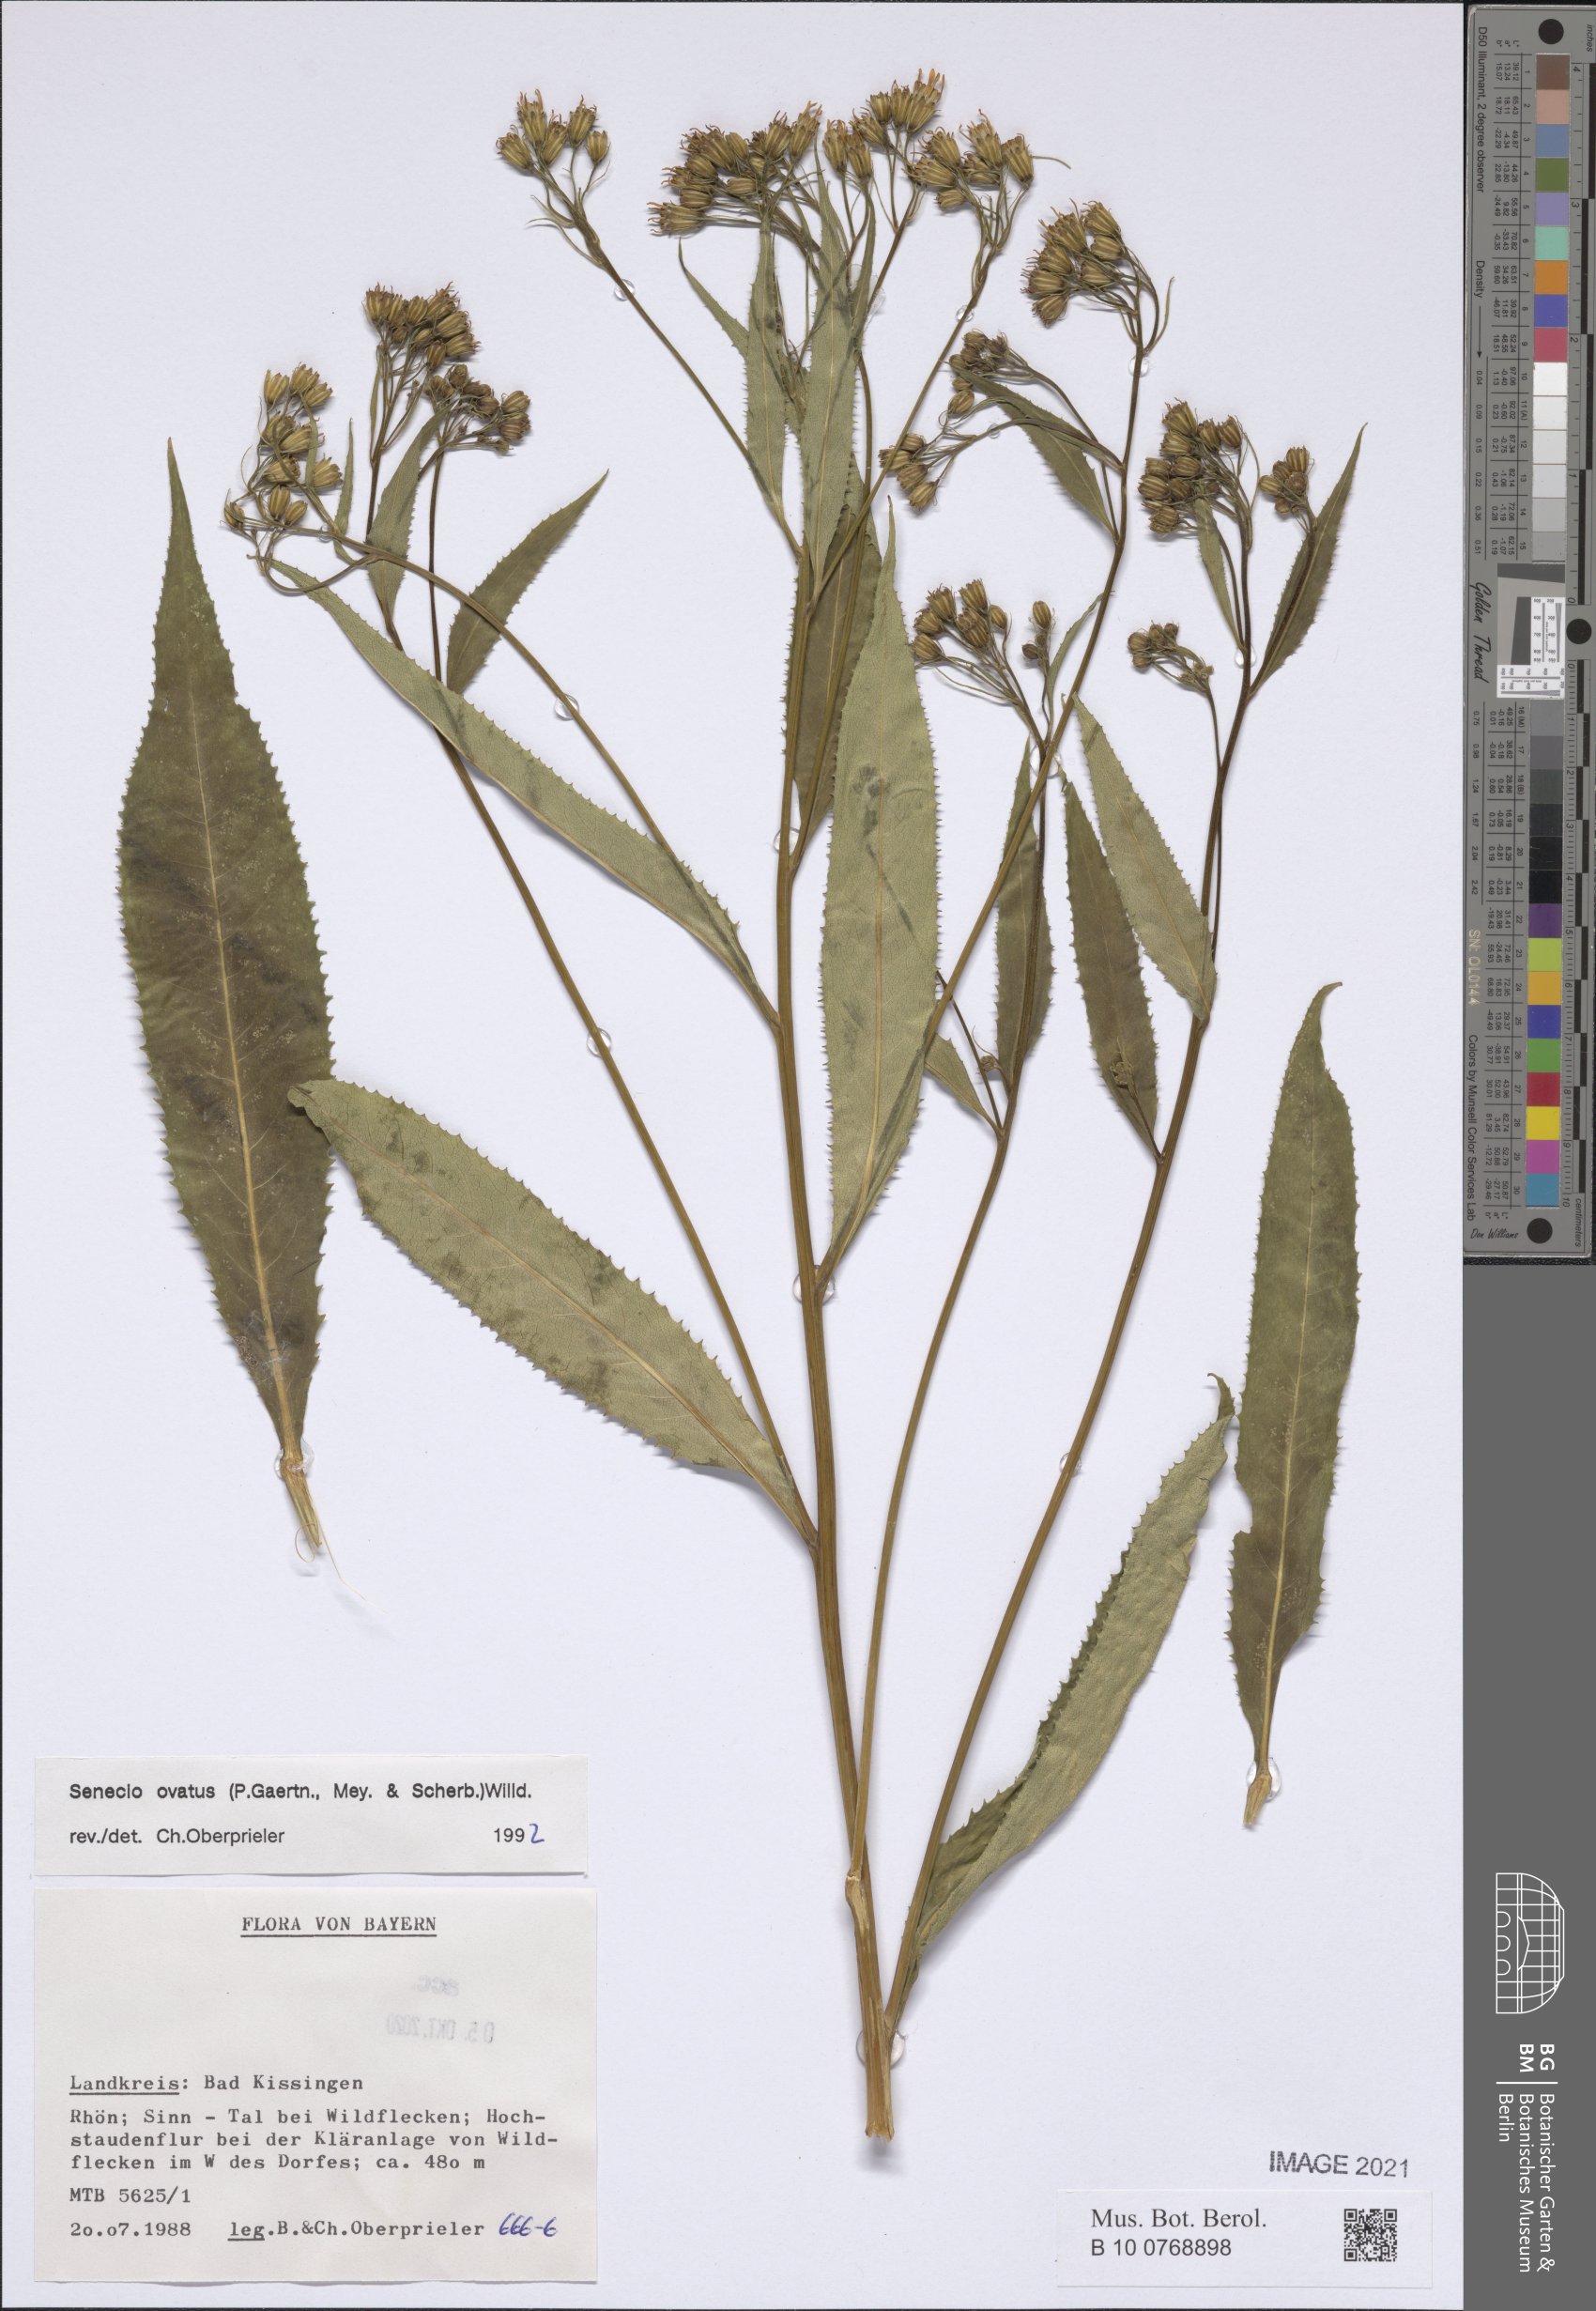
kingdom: Plantae
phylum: Tracheophyta
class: Magnoliopsida
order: Asterales
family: Asteraceae
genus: Senecio
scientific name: Senecio ovatus
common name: Wood ragwort
